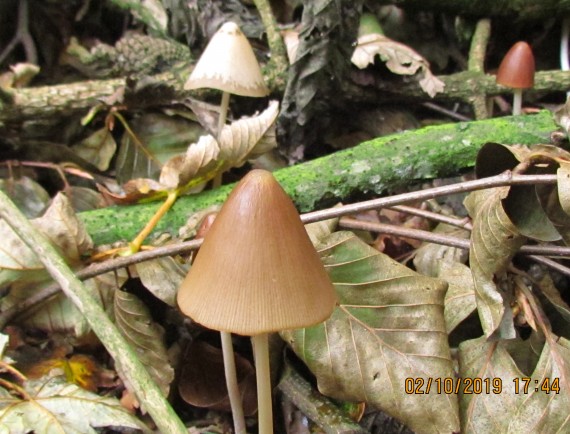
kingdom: Fungi
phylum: Basidiomycota
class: Agaricomycetes
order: Agaricales
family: Psathyrellaceae
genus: Parasola
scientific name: Parasola conopilea
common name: kegle-hjulhat
